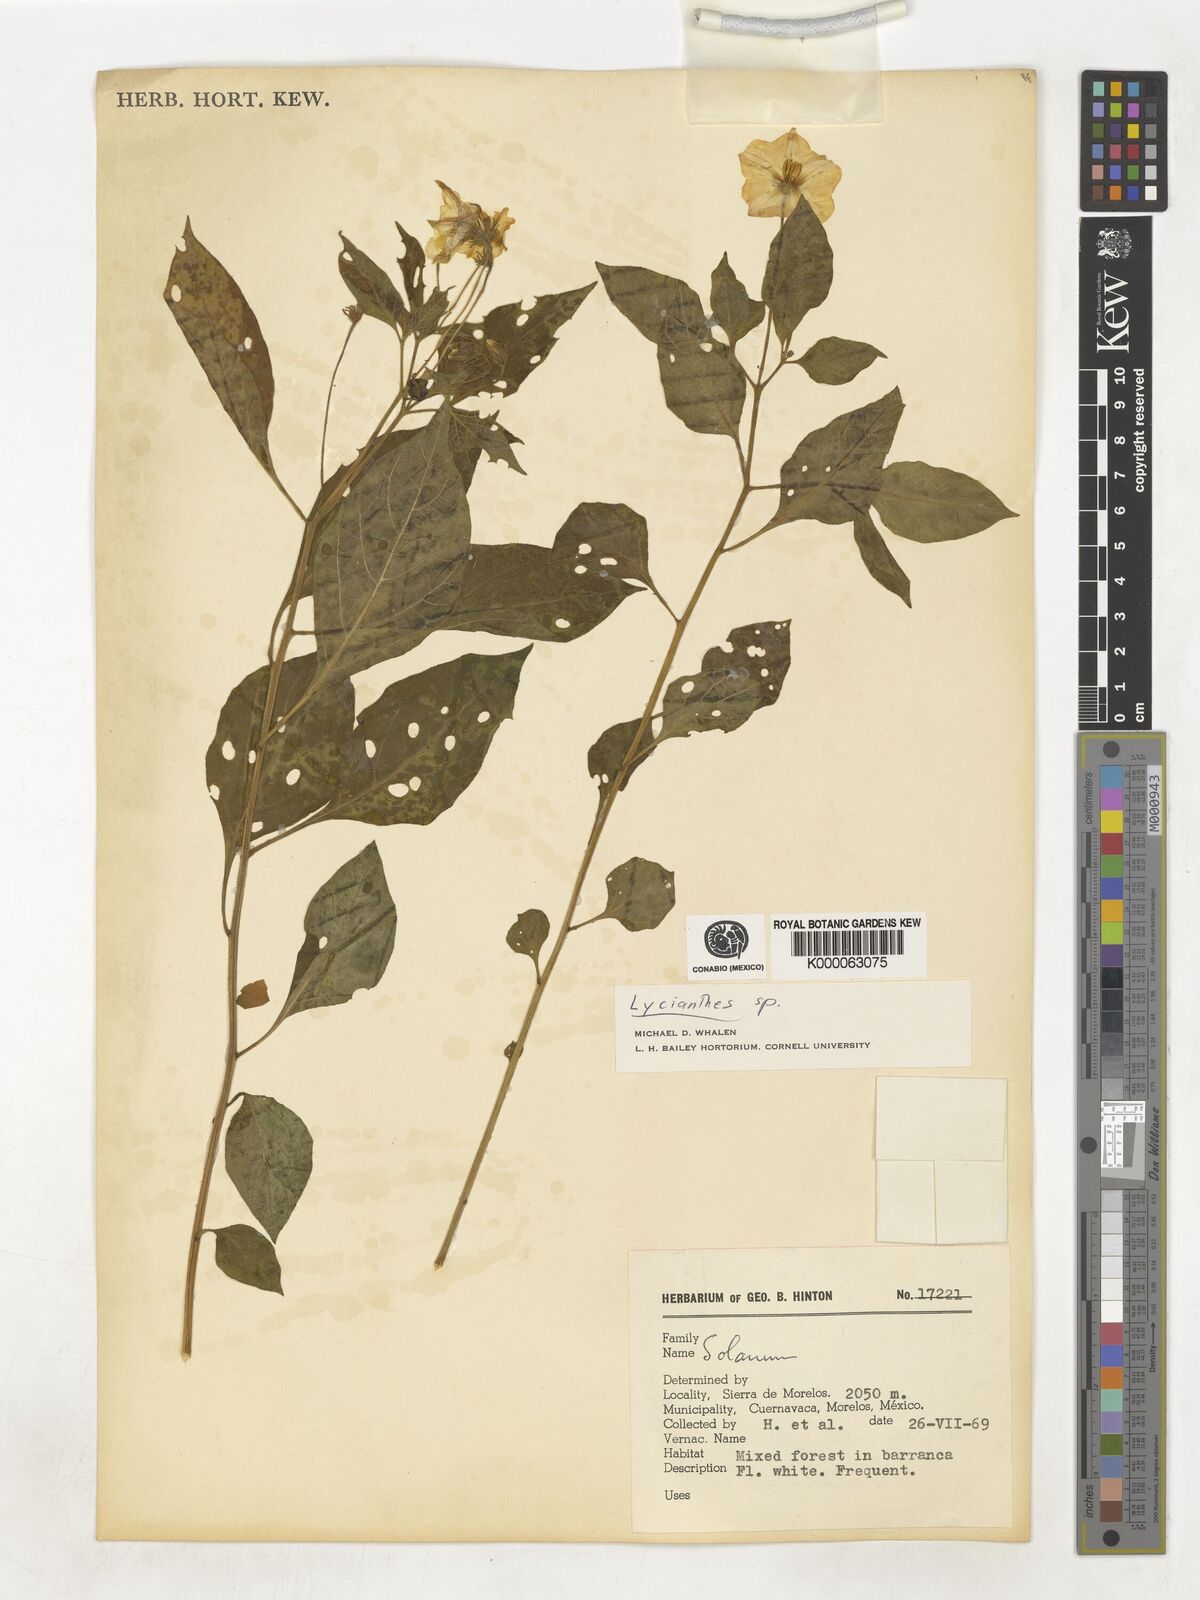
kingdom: Plantae
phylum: Tracheophyta
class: Magnoliopsida
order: Solanales
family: Solanaceae
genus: Lycianthes
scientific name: Lycianthes
